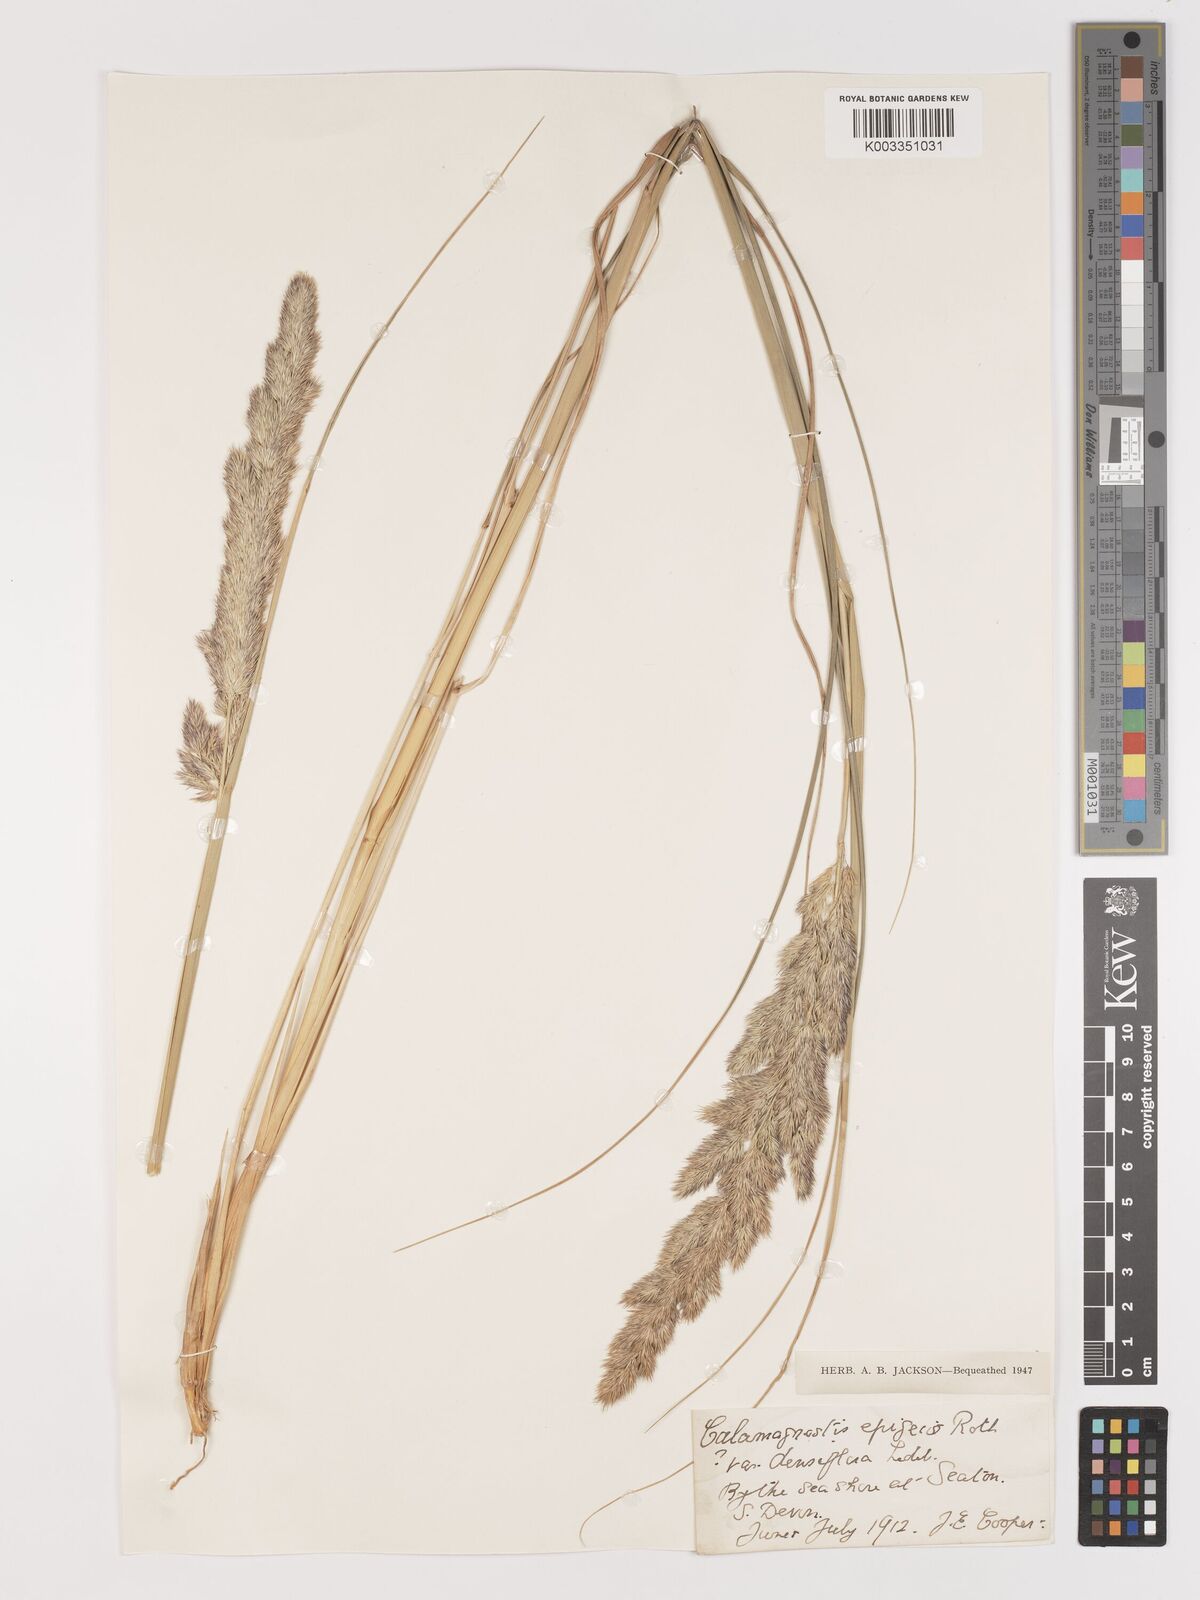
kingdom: Plantae
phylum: Tracheophyta
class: Liliopsida
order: Poales
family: Poaceae
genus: Calamagrostis
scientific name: Calamagrostis epigejos
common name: Wood small-reed
